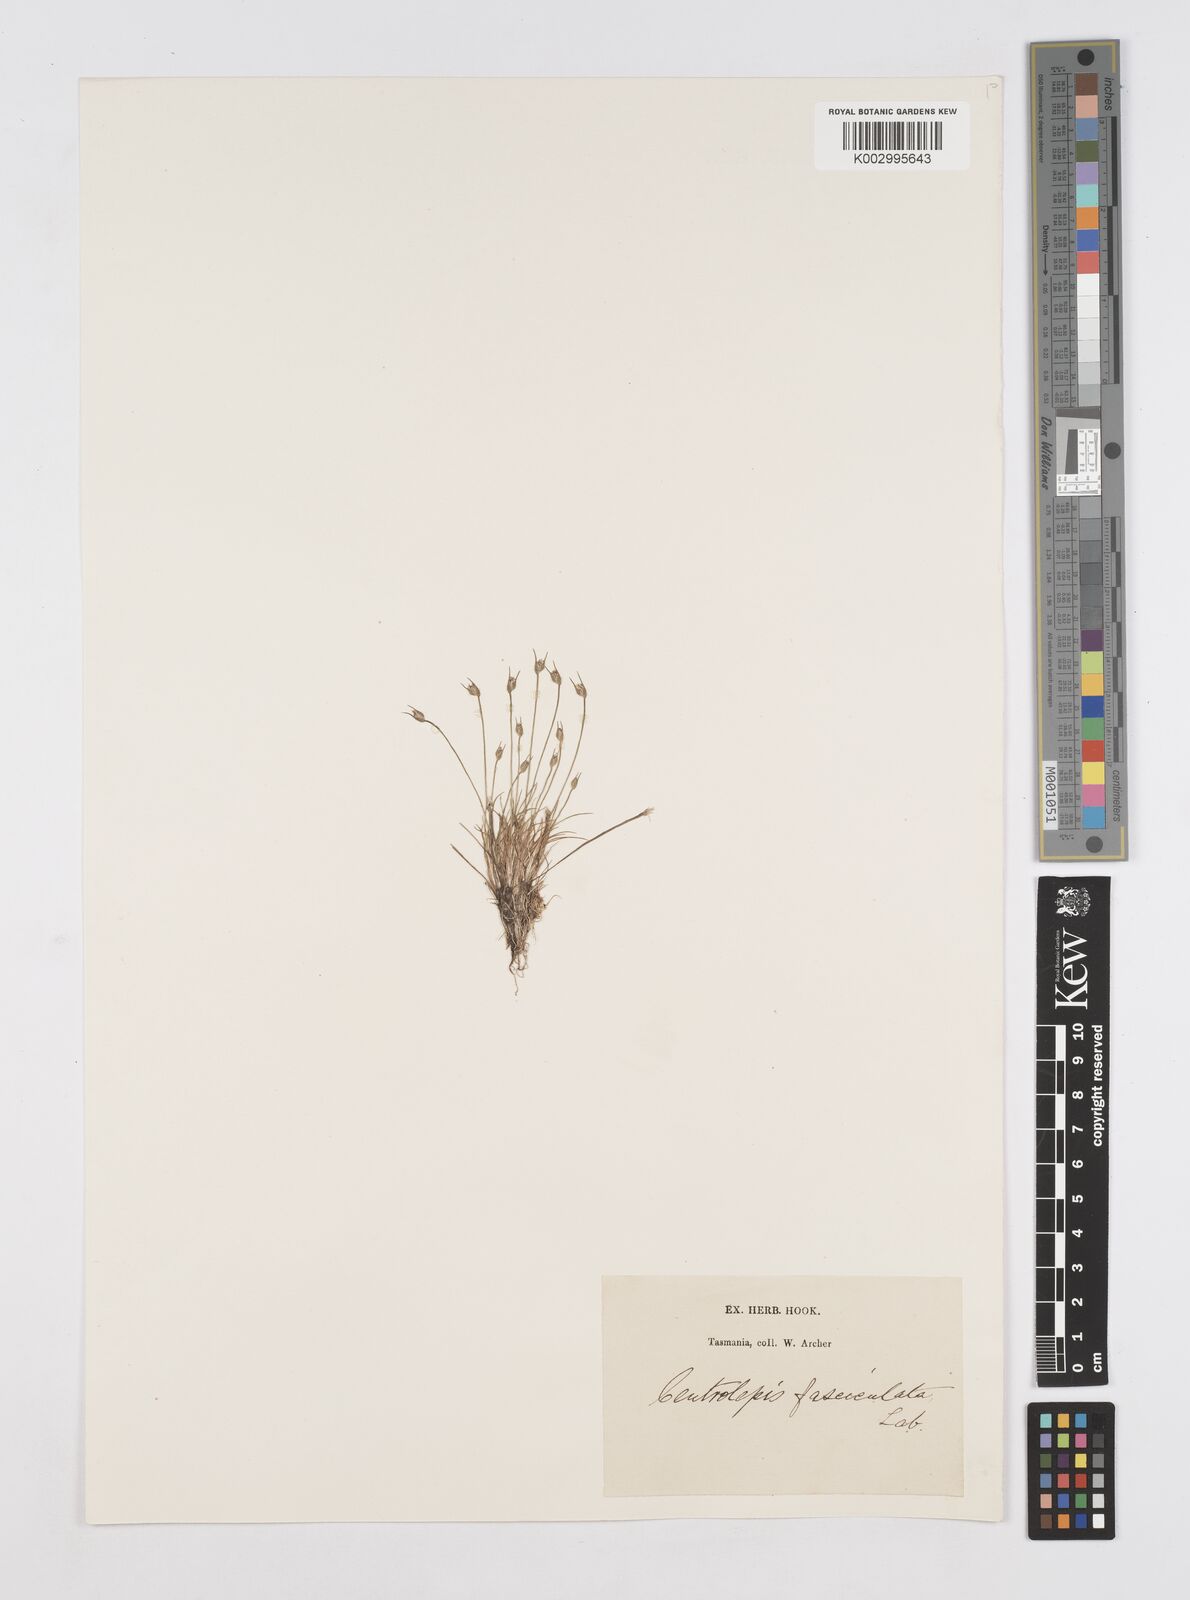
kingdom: Plantae
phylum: Tracheophyta
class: Liliopsida
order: Poales
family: Restionaceae
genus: Centrolepis
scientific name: Centrolepis fascicularis
